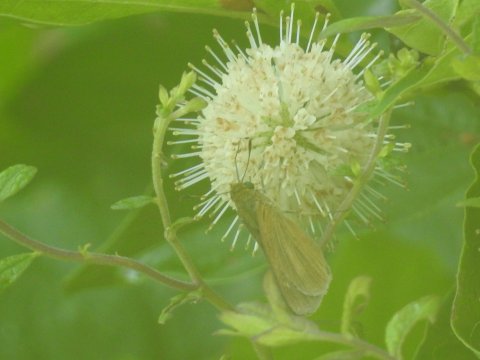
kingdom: Animalia
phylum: Arthropoda
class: Insecta
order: Lepidoptera
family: Hesperiidae
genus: Euphyes
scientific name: Euphyes dion
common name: Dion Skipper
